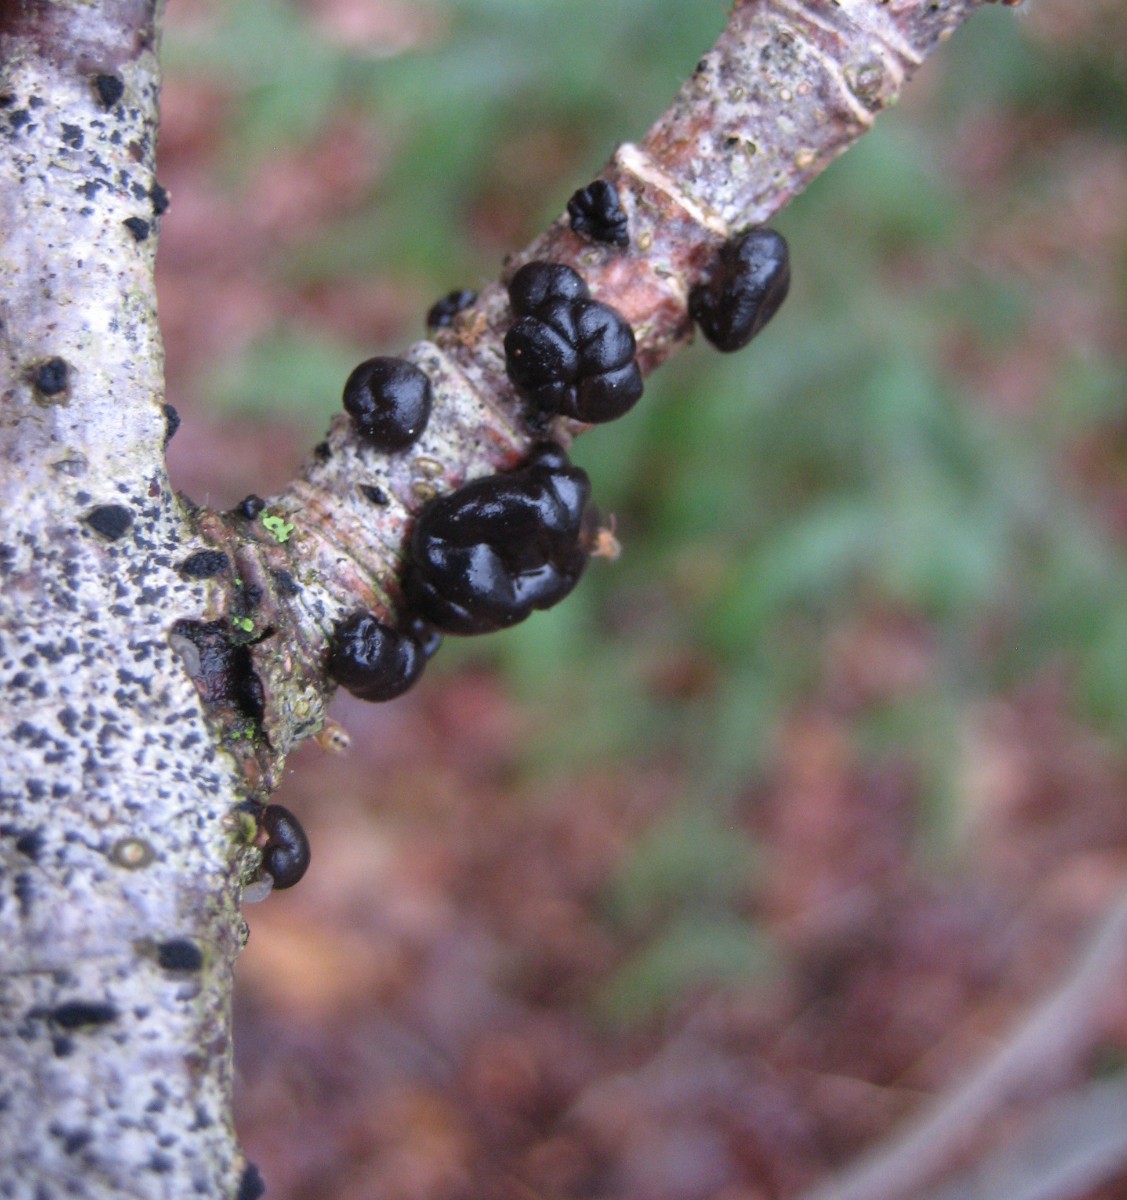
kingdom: Fungi
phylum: Basidiomycota
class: Agaricomycetes
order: Auriculariales
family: Auriculariaceae
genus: Exidia
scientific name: Exidia nigricans
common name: almindelig bævretop
